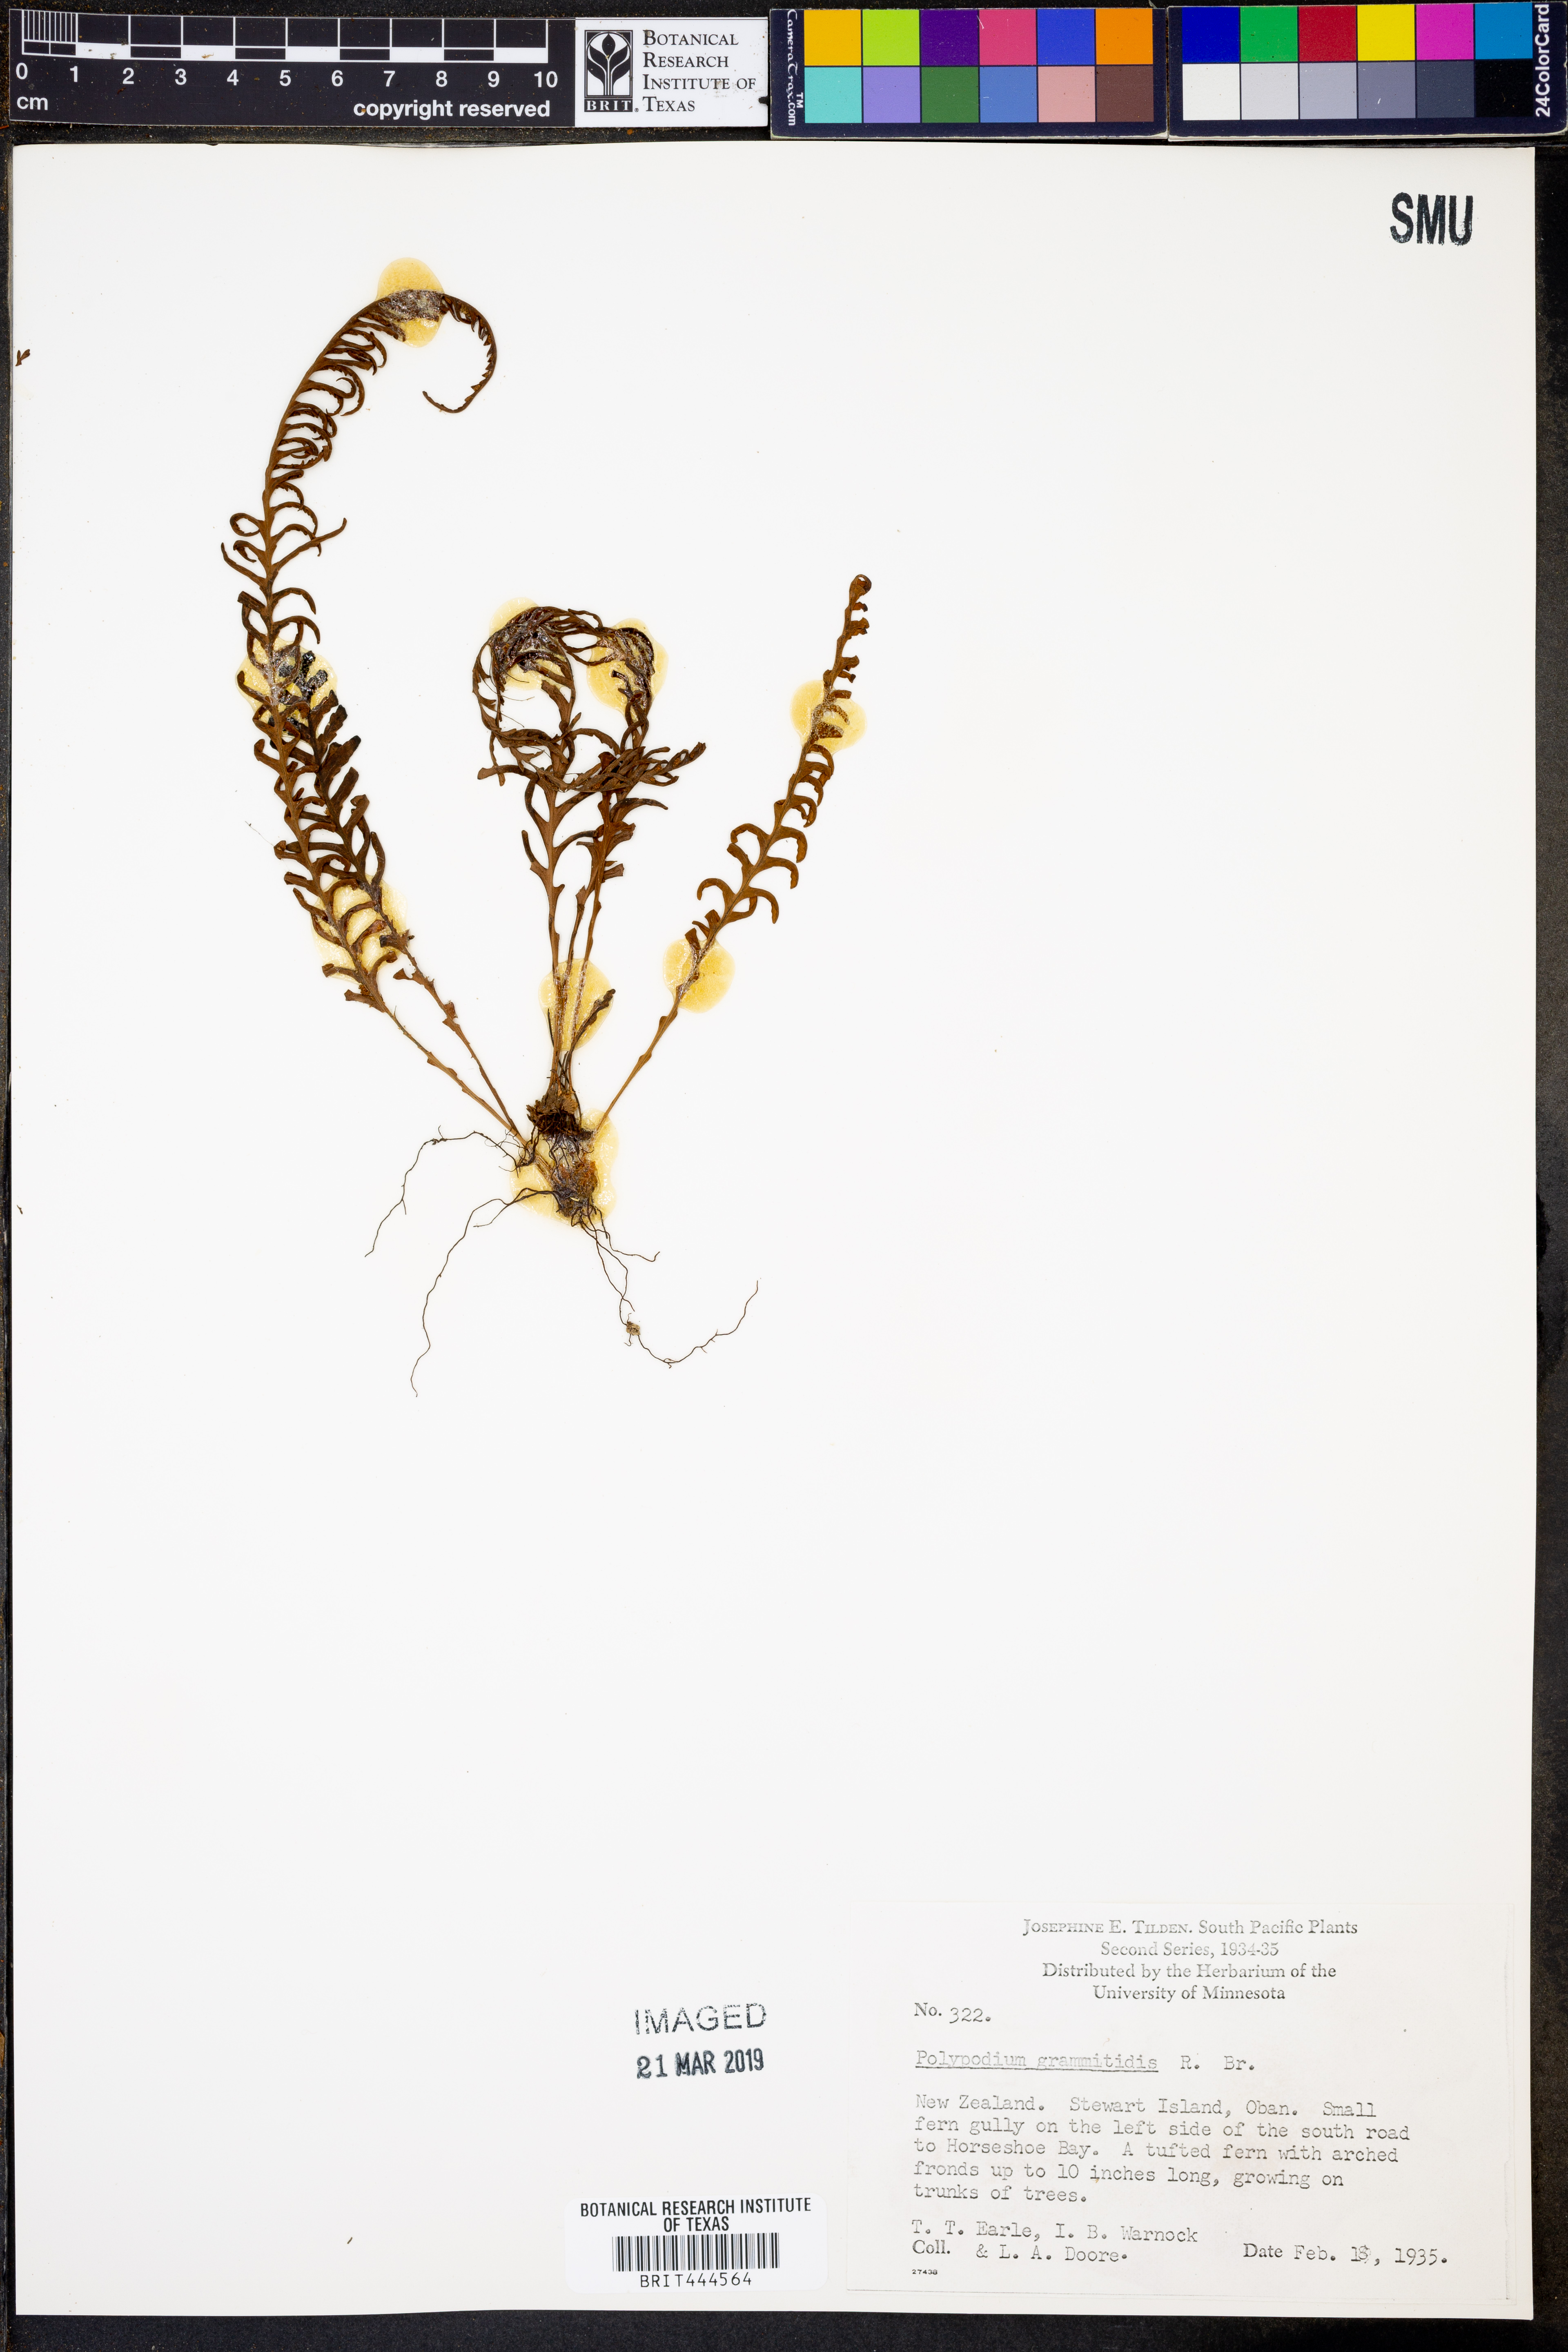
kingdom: Plantae
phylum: Tracheophyta
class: Polypodiopsida
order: Polypodiales
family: Polypodiaceae
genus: Loxogramme
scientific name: Loxogramme grammitoides
